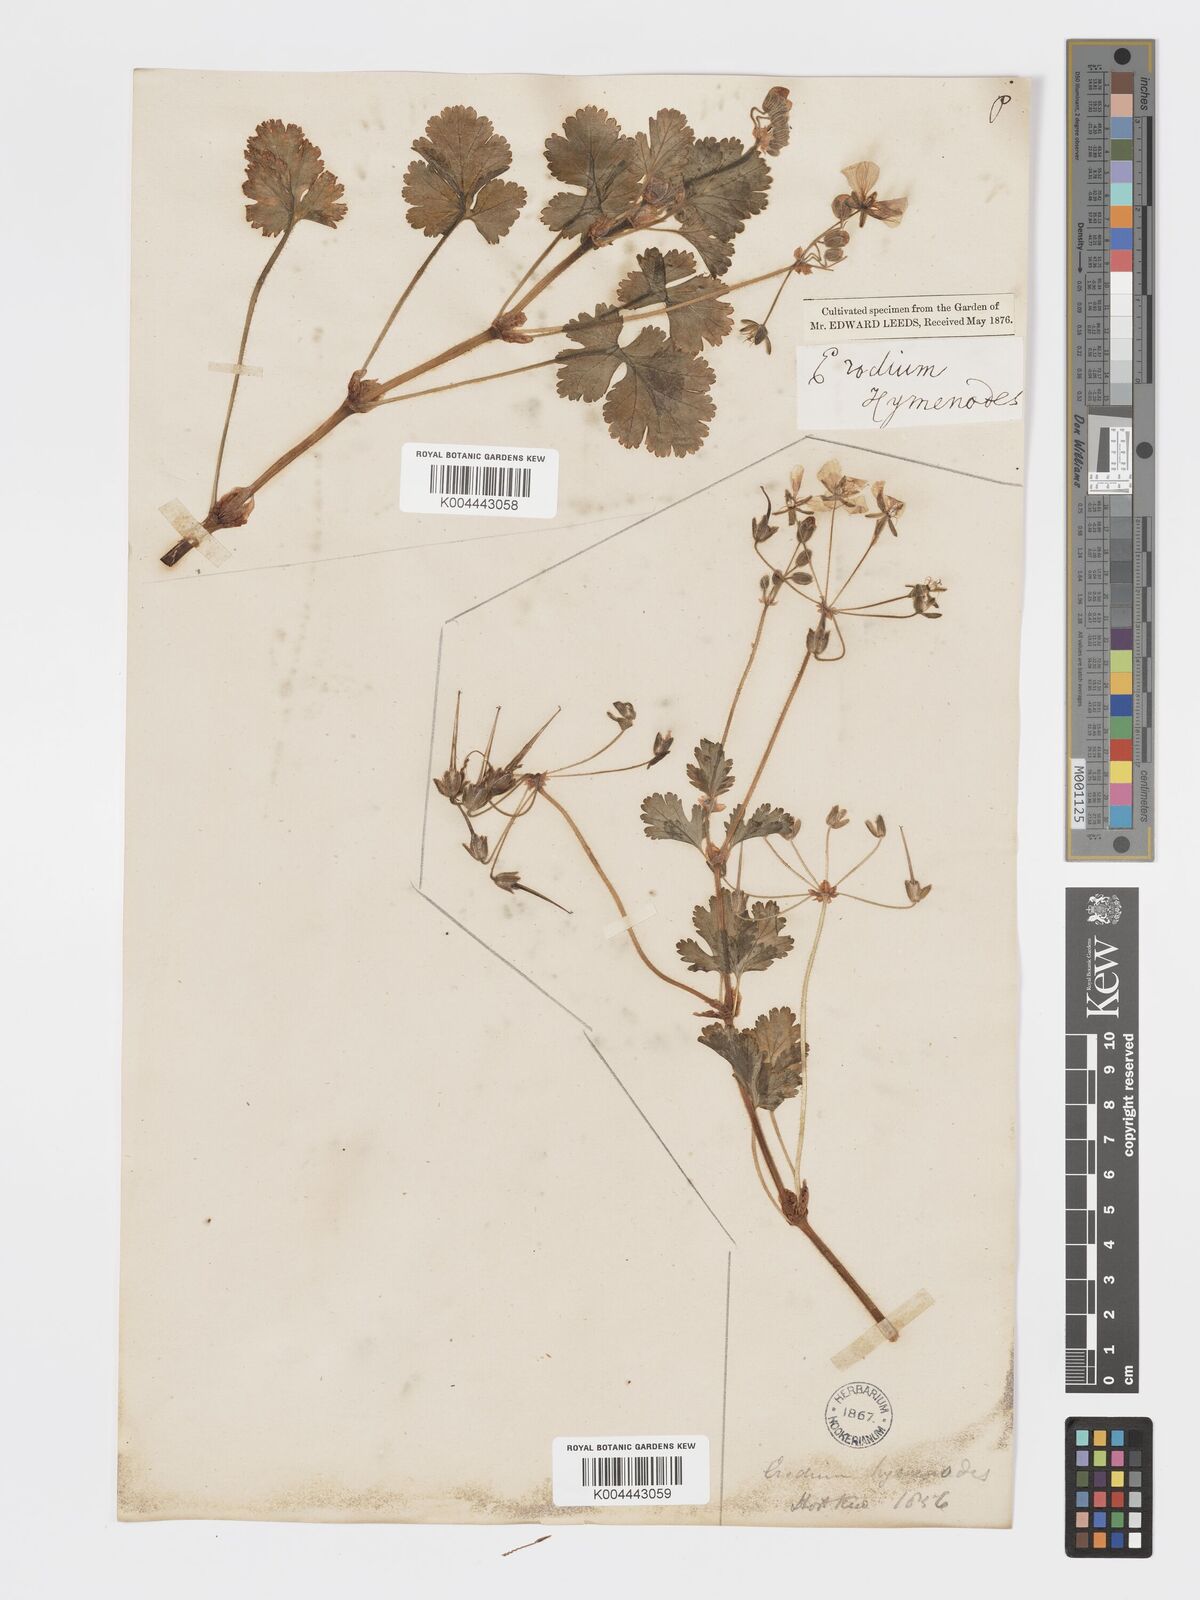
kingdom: Plantae
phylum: Tracheophyta
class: Magnoliopsida
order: Geraniales
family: Geraniaceae
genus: Erodium
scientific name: Erodium trifolium
